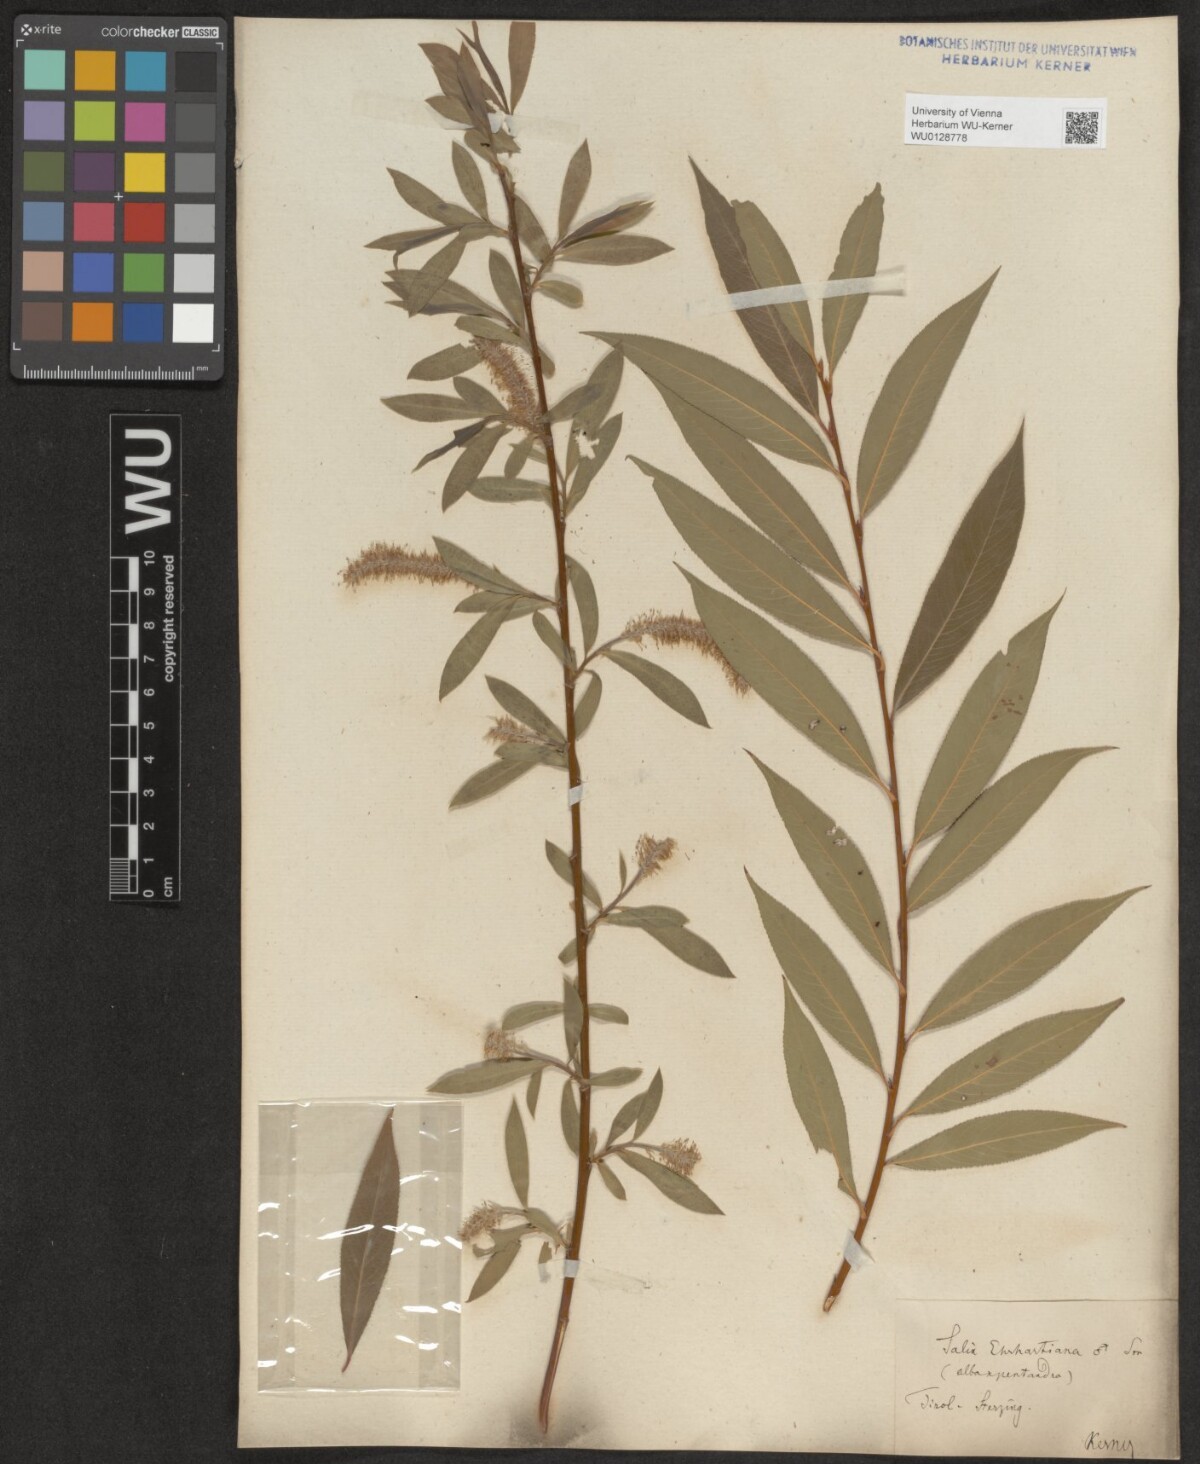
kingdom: Plantae
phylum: Tracheophyta
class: Magnoliopsida
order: Malpighiales
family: Salicaceae
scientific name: Salicaceae
